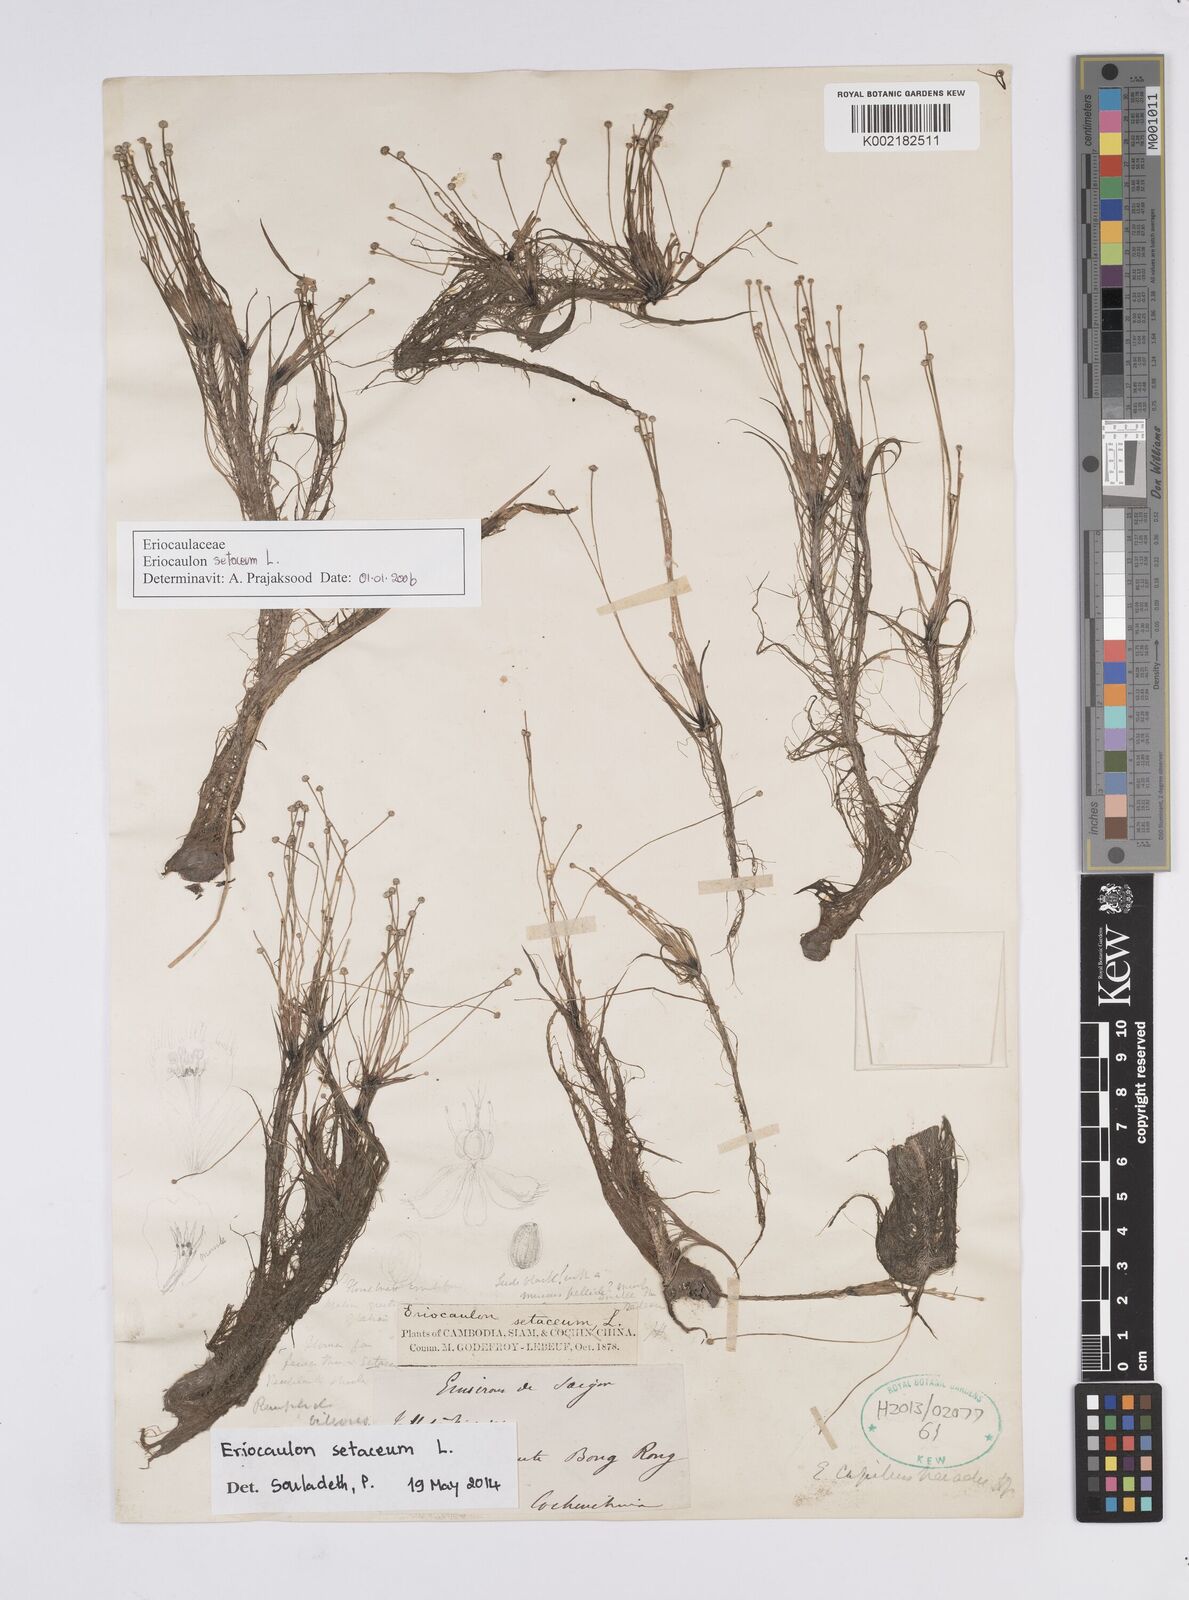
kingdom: Plantae
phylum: Tracheophyta
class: Liliopsida
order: Poales
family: Eriocaulaceae
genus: Eriocaulon
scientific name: Eriocaulon setaceum
